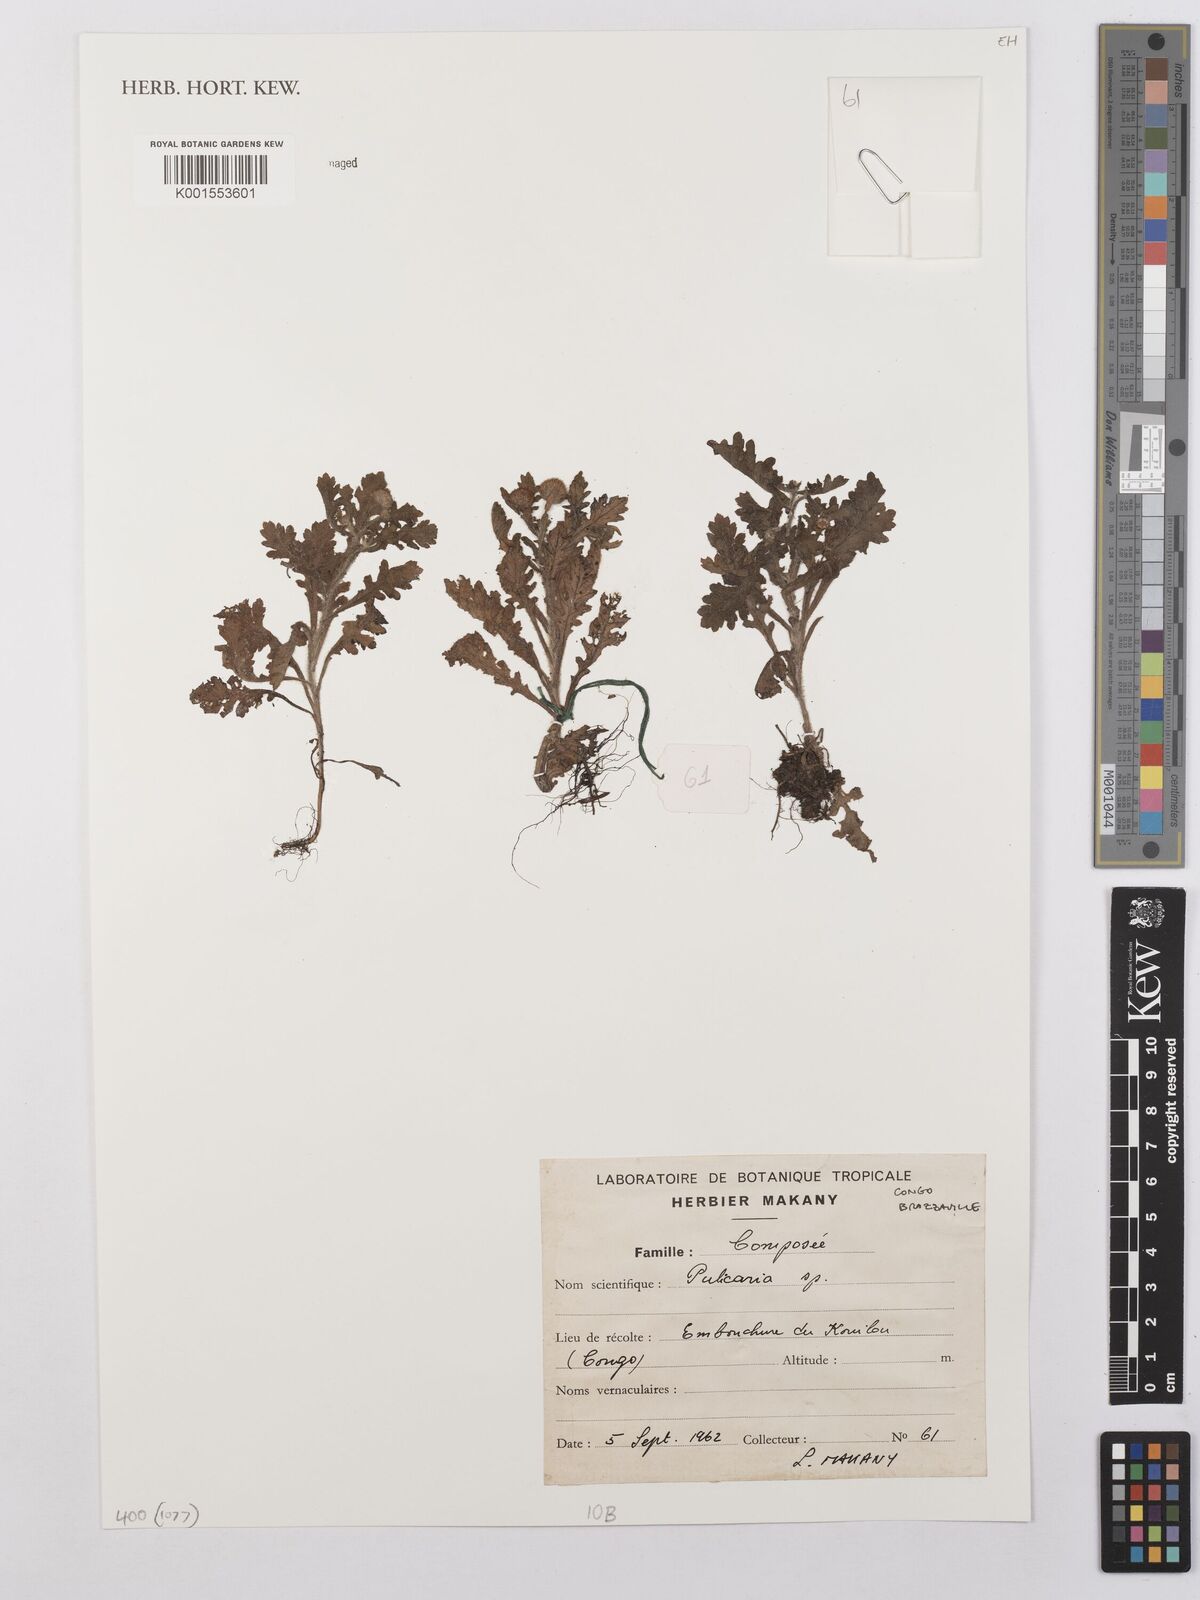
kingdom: Plantae
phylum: Tracheophyta
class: Magnoliopsida
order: Asterales
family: Asteraceae
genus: Pulicaria
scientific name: Pulicaria
